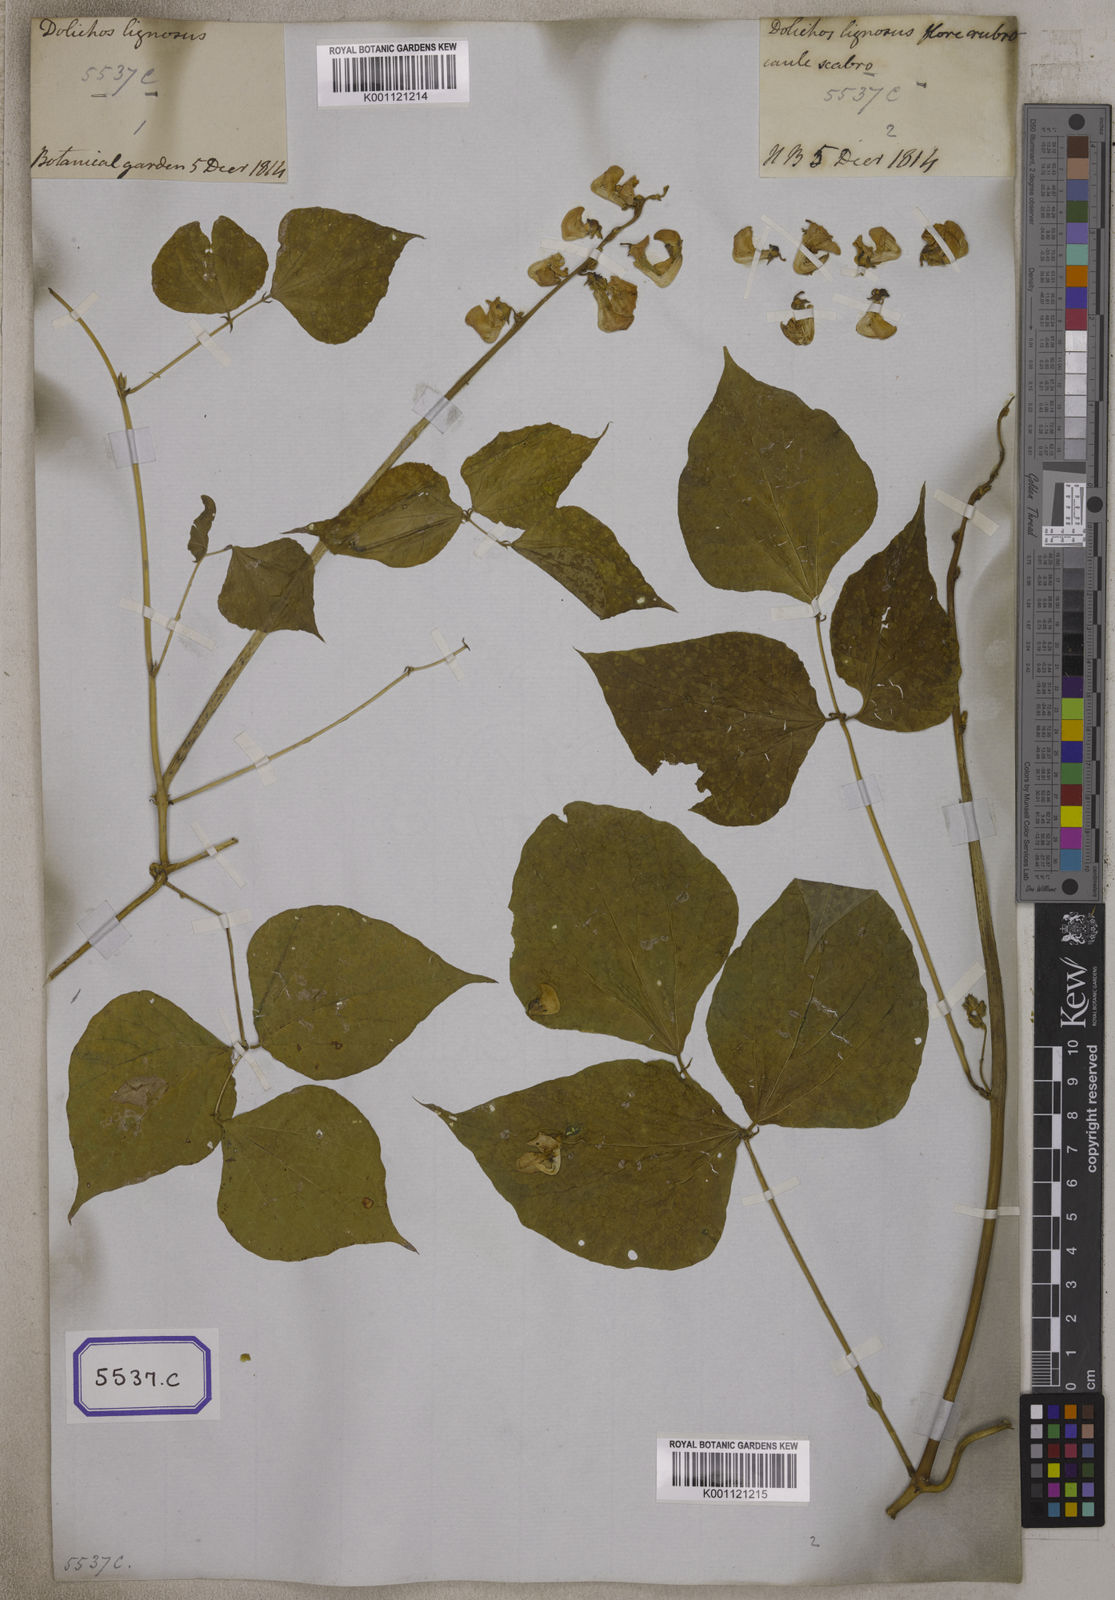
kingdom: Plantae
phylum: Tracheophyta
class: Magnoliopsida
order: Fabales
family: Fabaceae
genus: Lablab
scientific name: Lablab purpureus
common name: Lablab-bean
